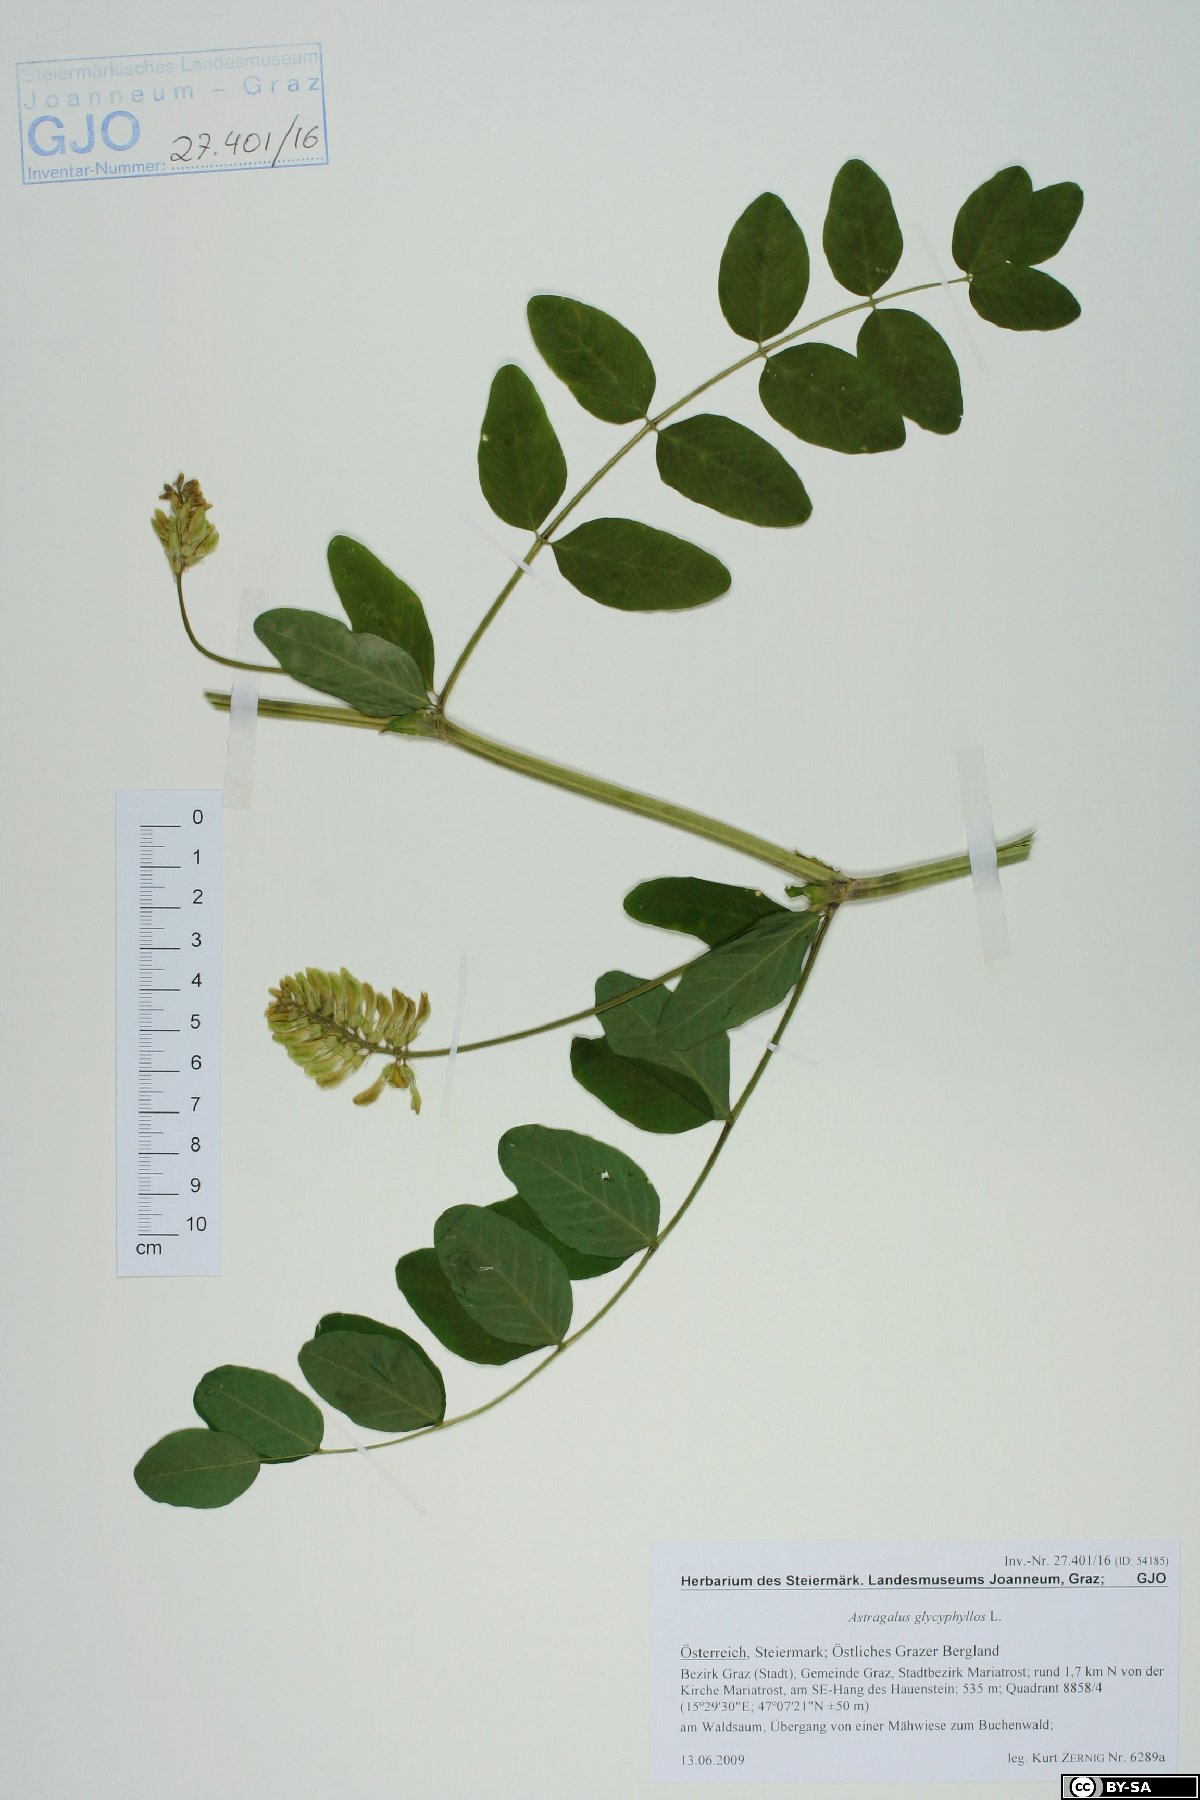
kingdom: Plantae
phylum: Tracheophyta
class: Magnoliopsida
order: Fabales
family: Fabaceae
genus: Astragalus
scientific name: Astragalus glycyphyllos
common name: Wild liquorice
